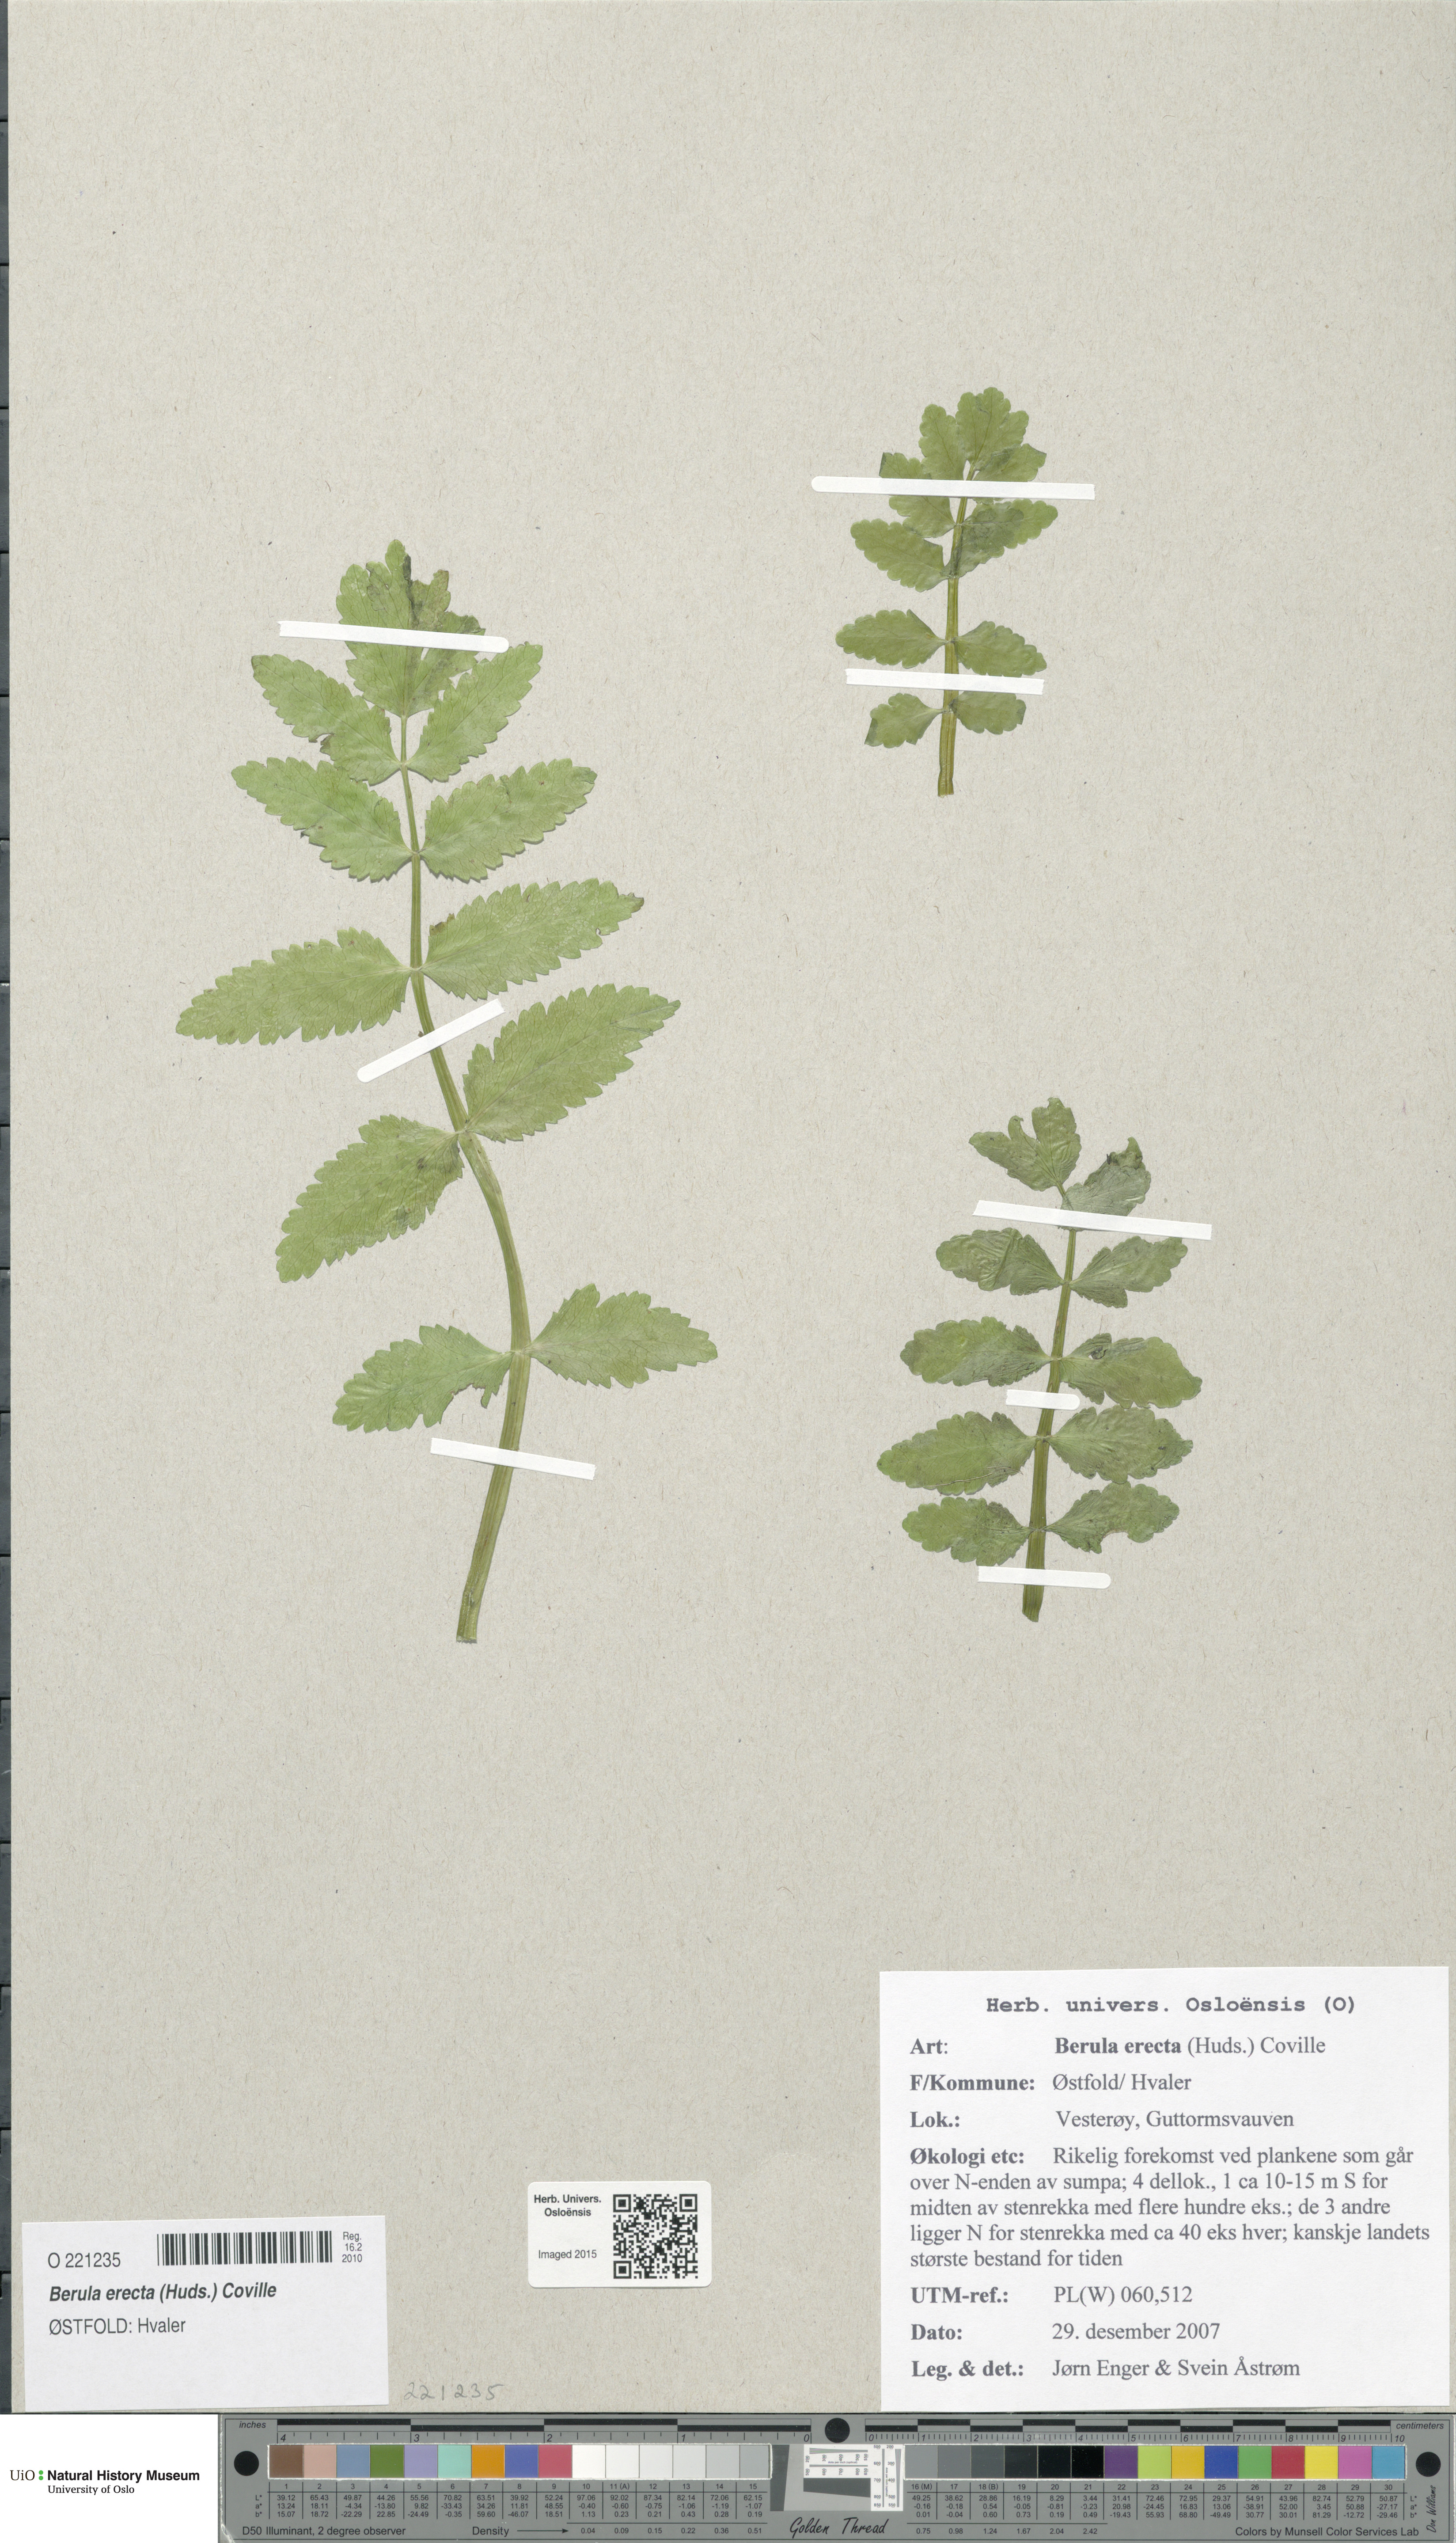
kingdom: Plantae
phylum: Tracheophyta
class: Magnoliopsida
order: Apiales
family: Apiaceae
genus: Berula
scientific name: Berula erecta
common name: Lesser water-parsnip
